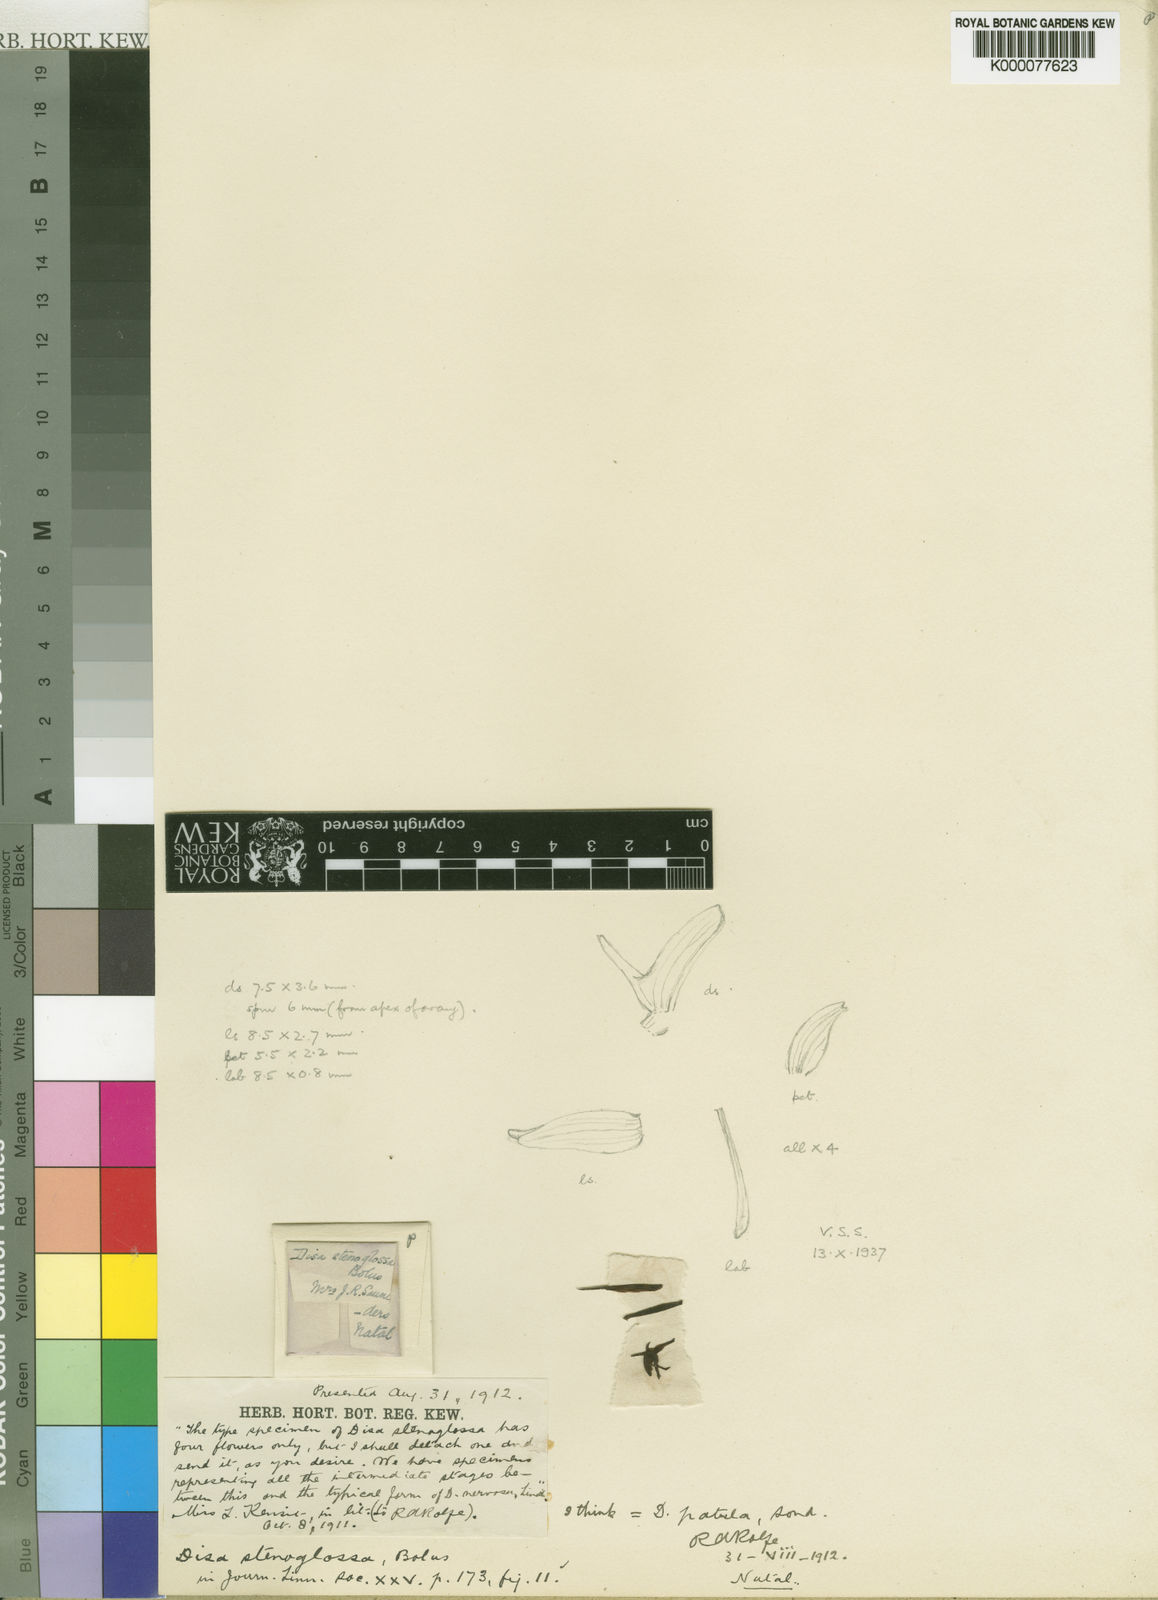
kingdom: Plantae
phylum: Tracheophyta
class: Liliopsida
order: Asparagales
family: Orchidaceae
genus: Disa
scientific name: Disa patula
